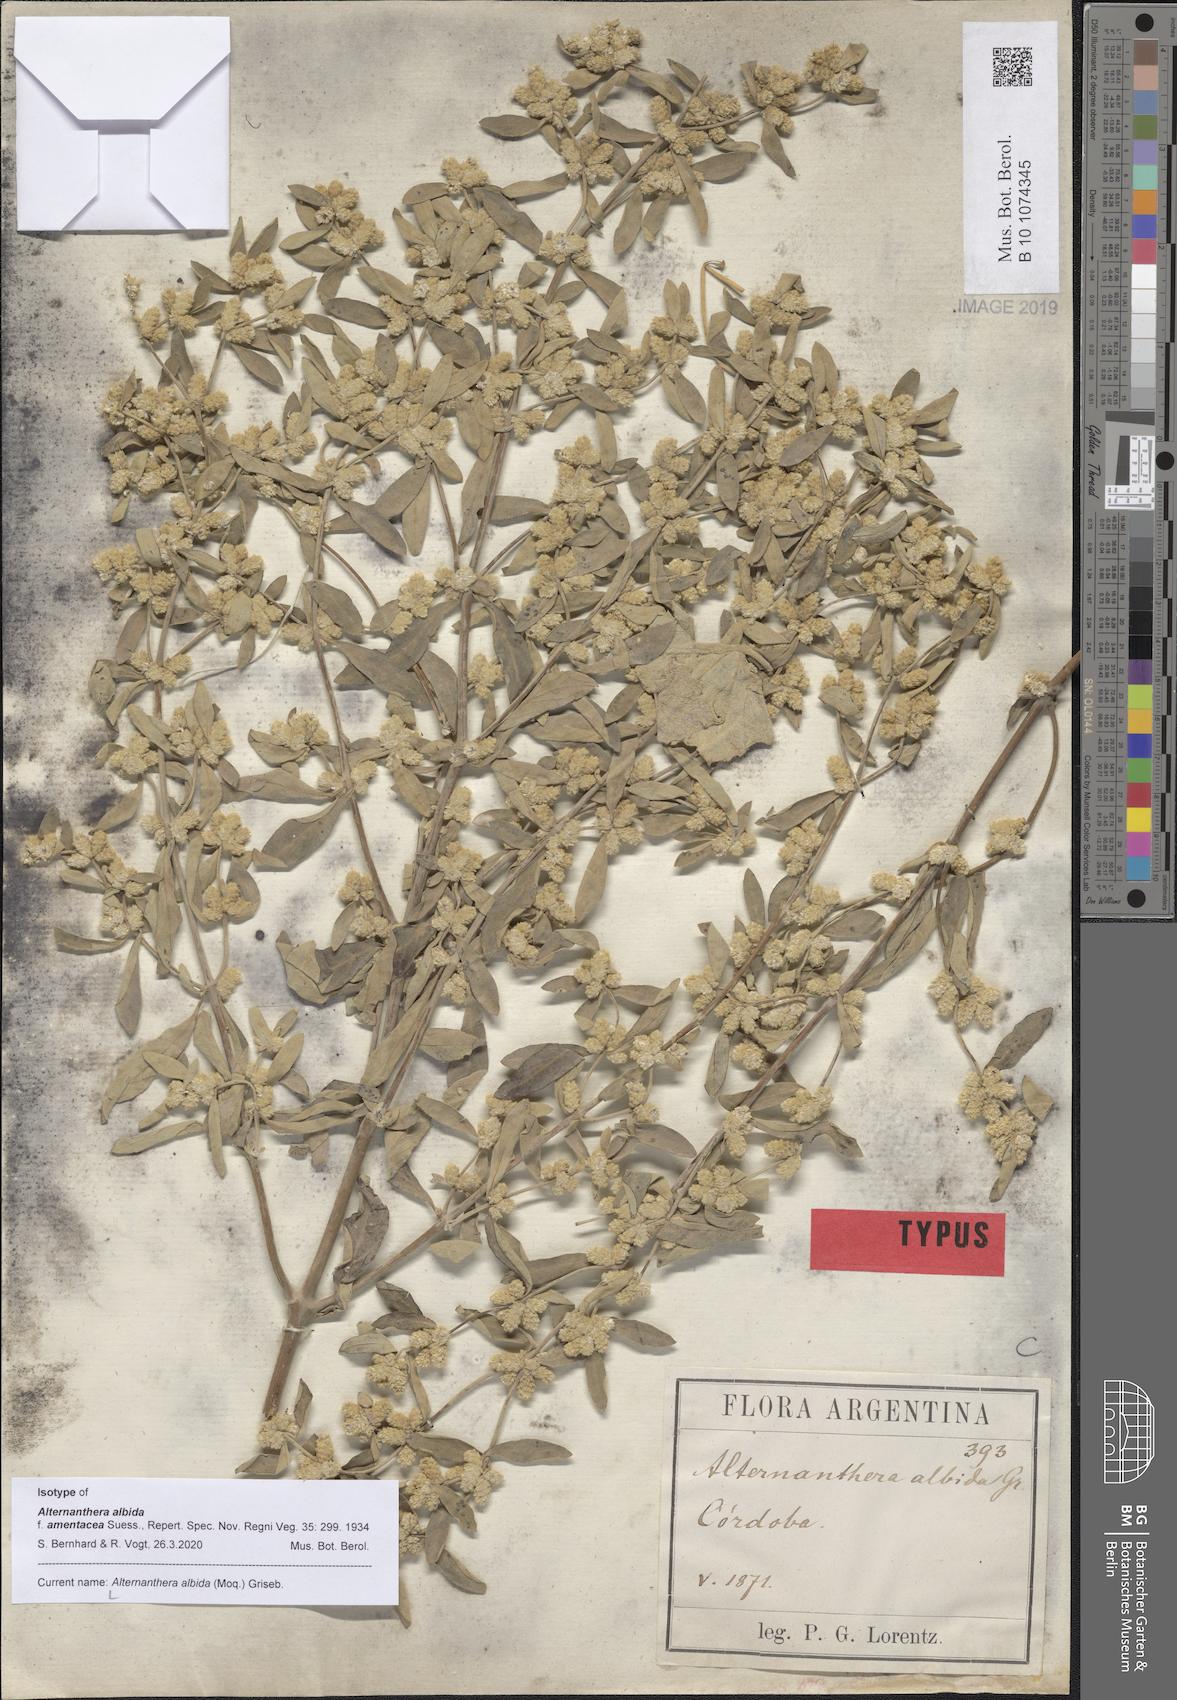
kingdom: Plantae
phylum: Tracheophyta
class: Magnoliopsida
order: Caryophyllales
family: Amaranthaceae
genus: Alternanthera
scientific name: Alternanthera albida
